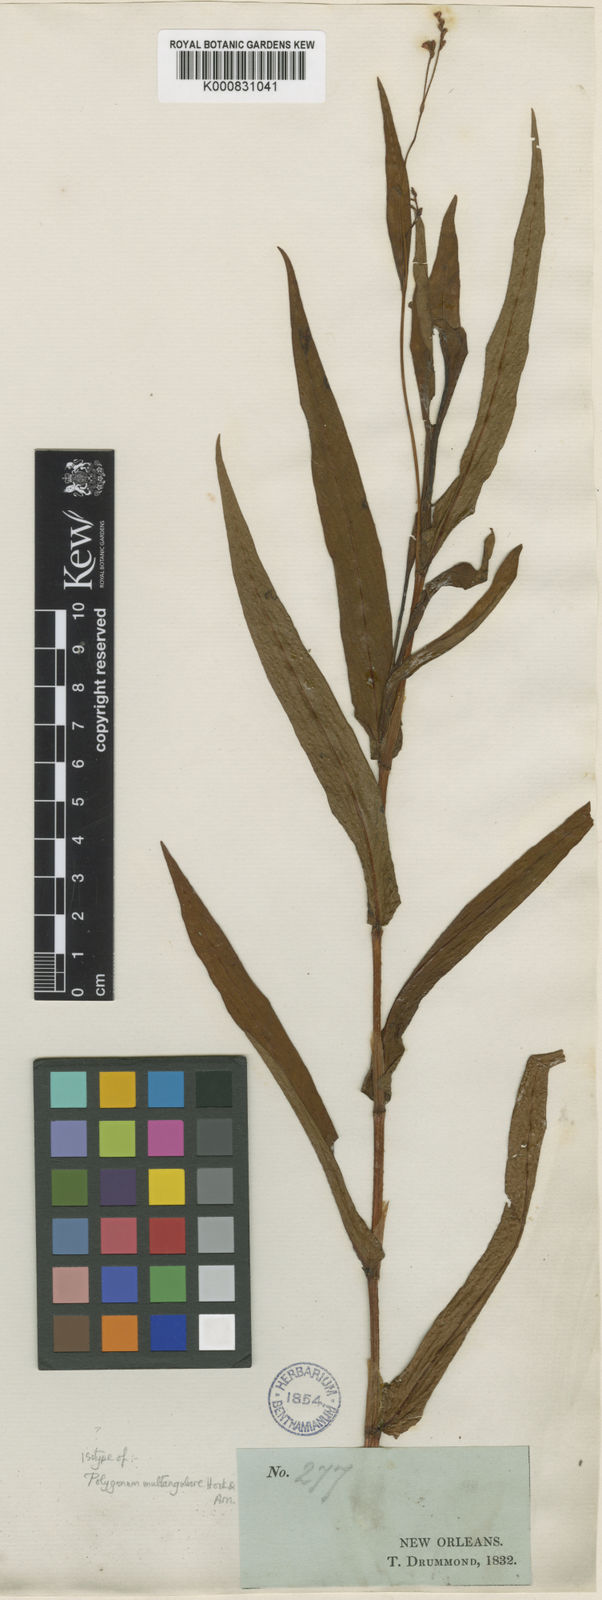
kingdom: Plantae
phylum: Tracheophyta
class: Magnoliopsida
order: Caryophyllales
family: Polygonaceae
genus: Persicaria
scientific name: Persicaria meisneriana
